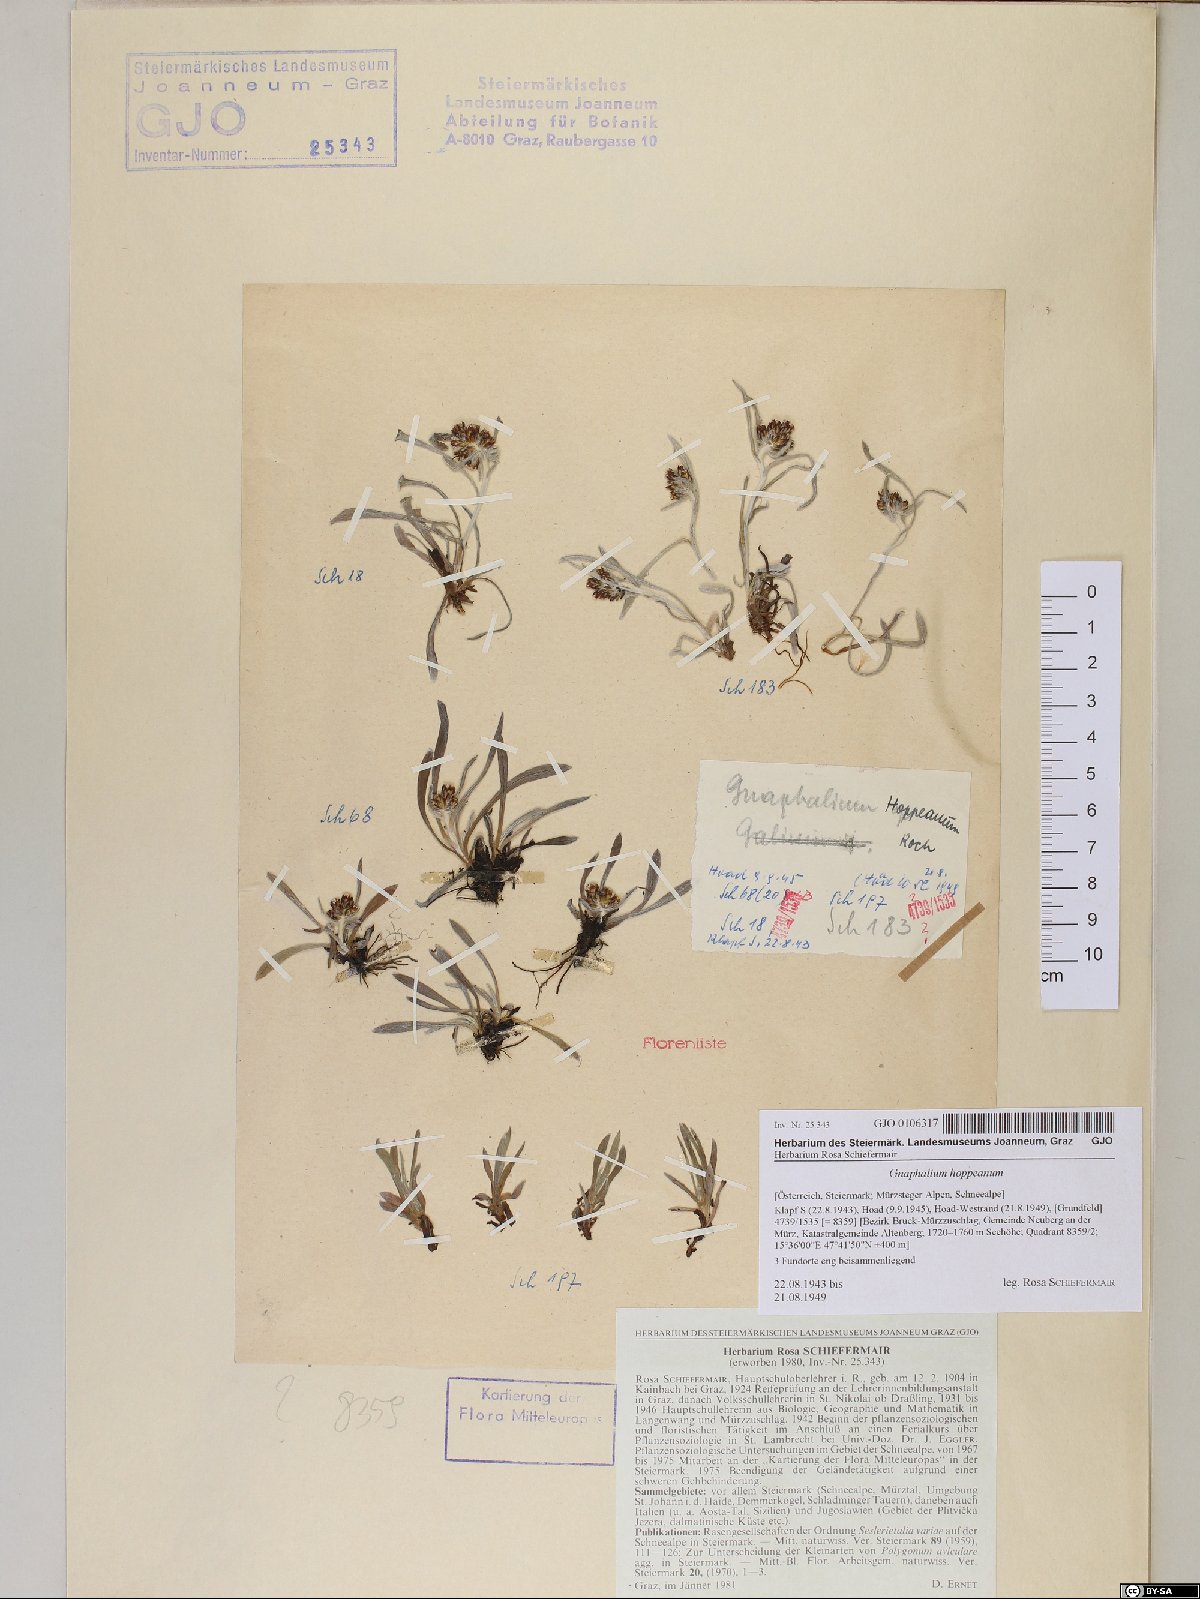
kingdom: Plantae
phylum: Tracheophyta
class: Magnoliopsida
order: Asterales
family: Asteraceae
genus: Omalotheca
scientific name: Omalotheca hoppeana
